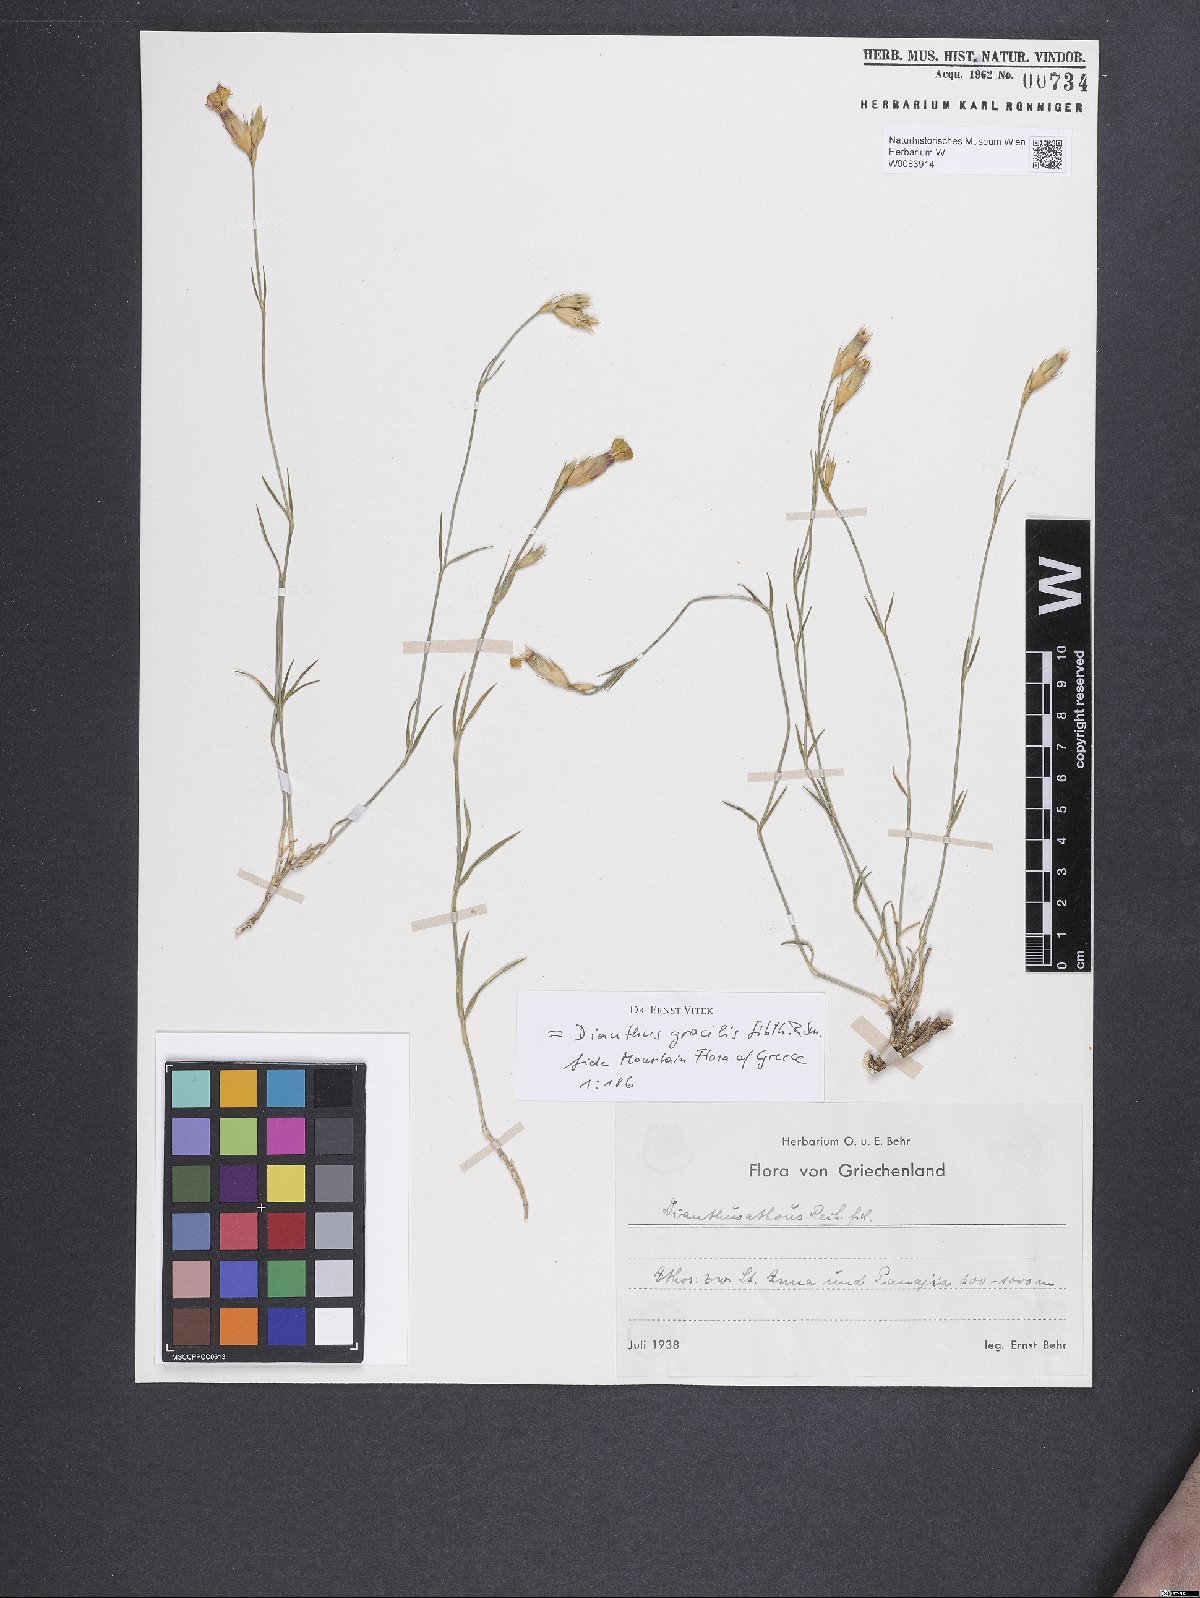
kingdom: Plantae
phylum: Tracheophyta
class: Magnoliopsida
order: Caryophyllales
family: Caryophyllaceae
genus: Dianthus
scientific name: Dianthus gracilis
